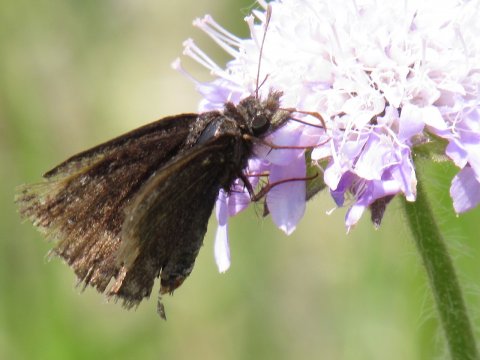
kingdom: Animalia
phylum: Arthropoda
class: Insecta
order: Lepidoptera
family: Hesperiidae
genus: Erynnis
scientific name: Erynnis
